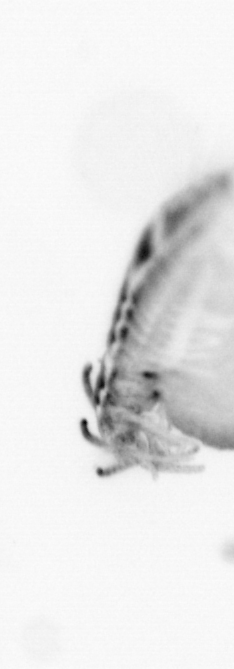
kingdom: Animalia
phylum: Annelida
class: Polychaeta
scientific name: Polychaeta
